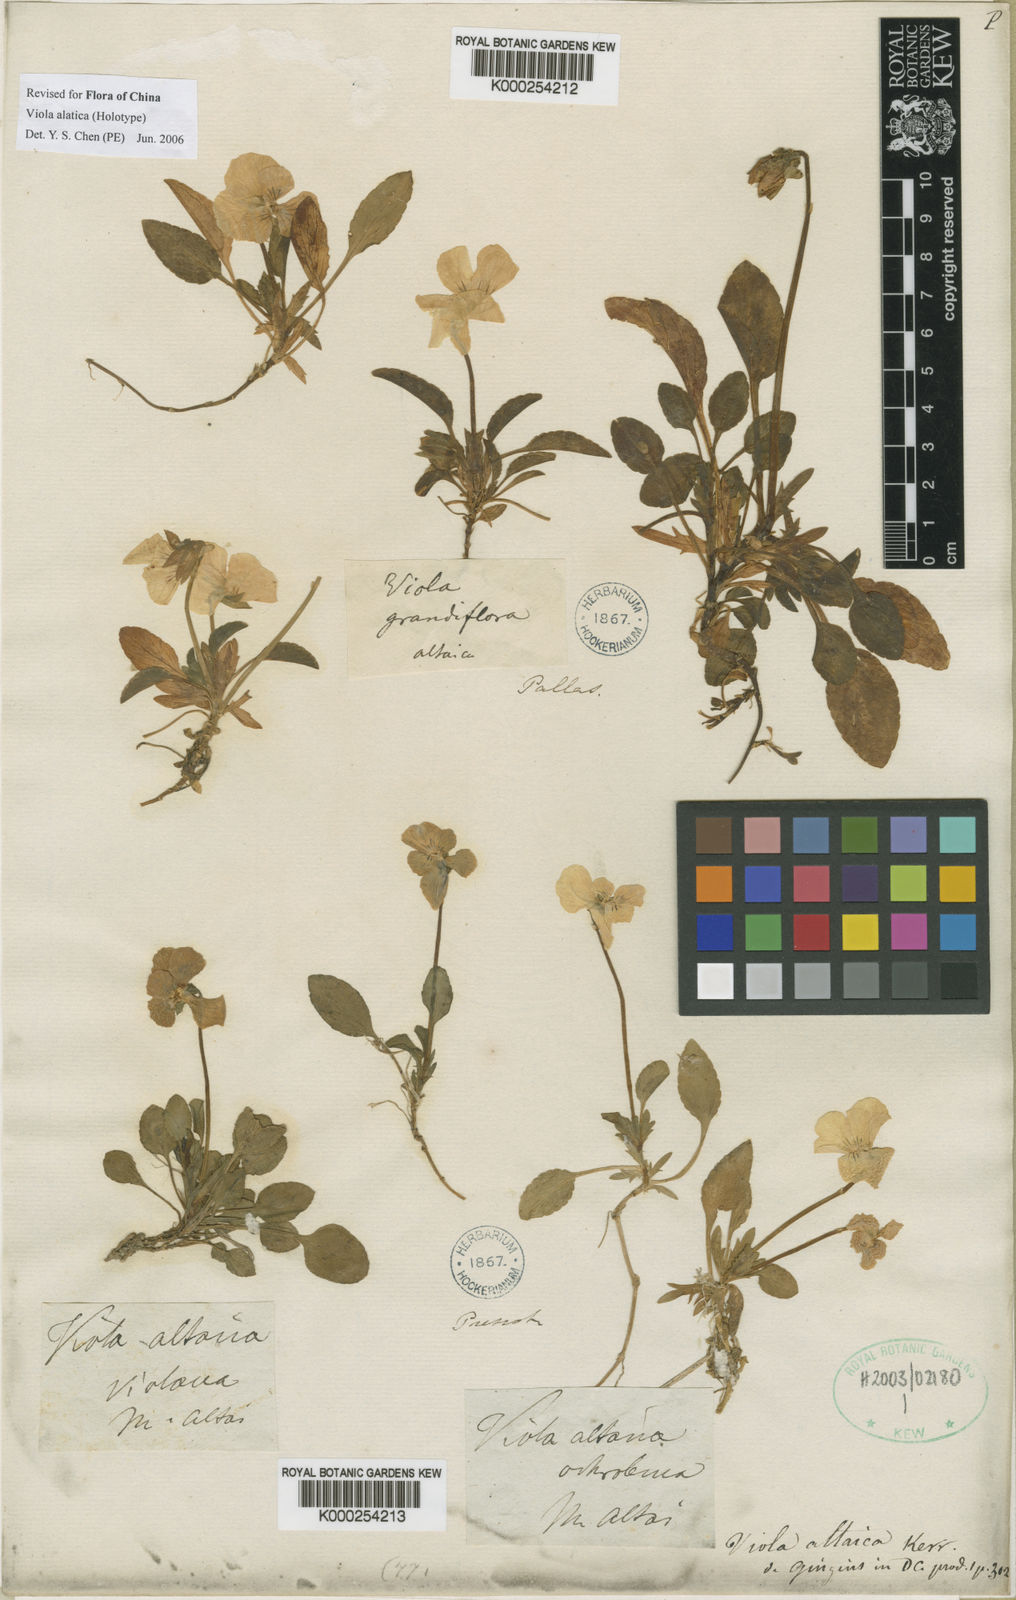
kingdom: Plantae
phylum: Tracheophyta
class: Magnoliopsida
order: Malpighiales
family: Violaceae
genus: Viola
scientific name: Viola altaica
